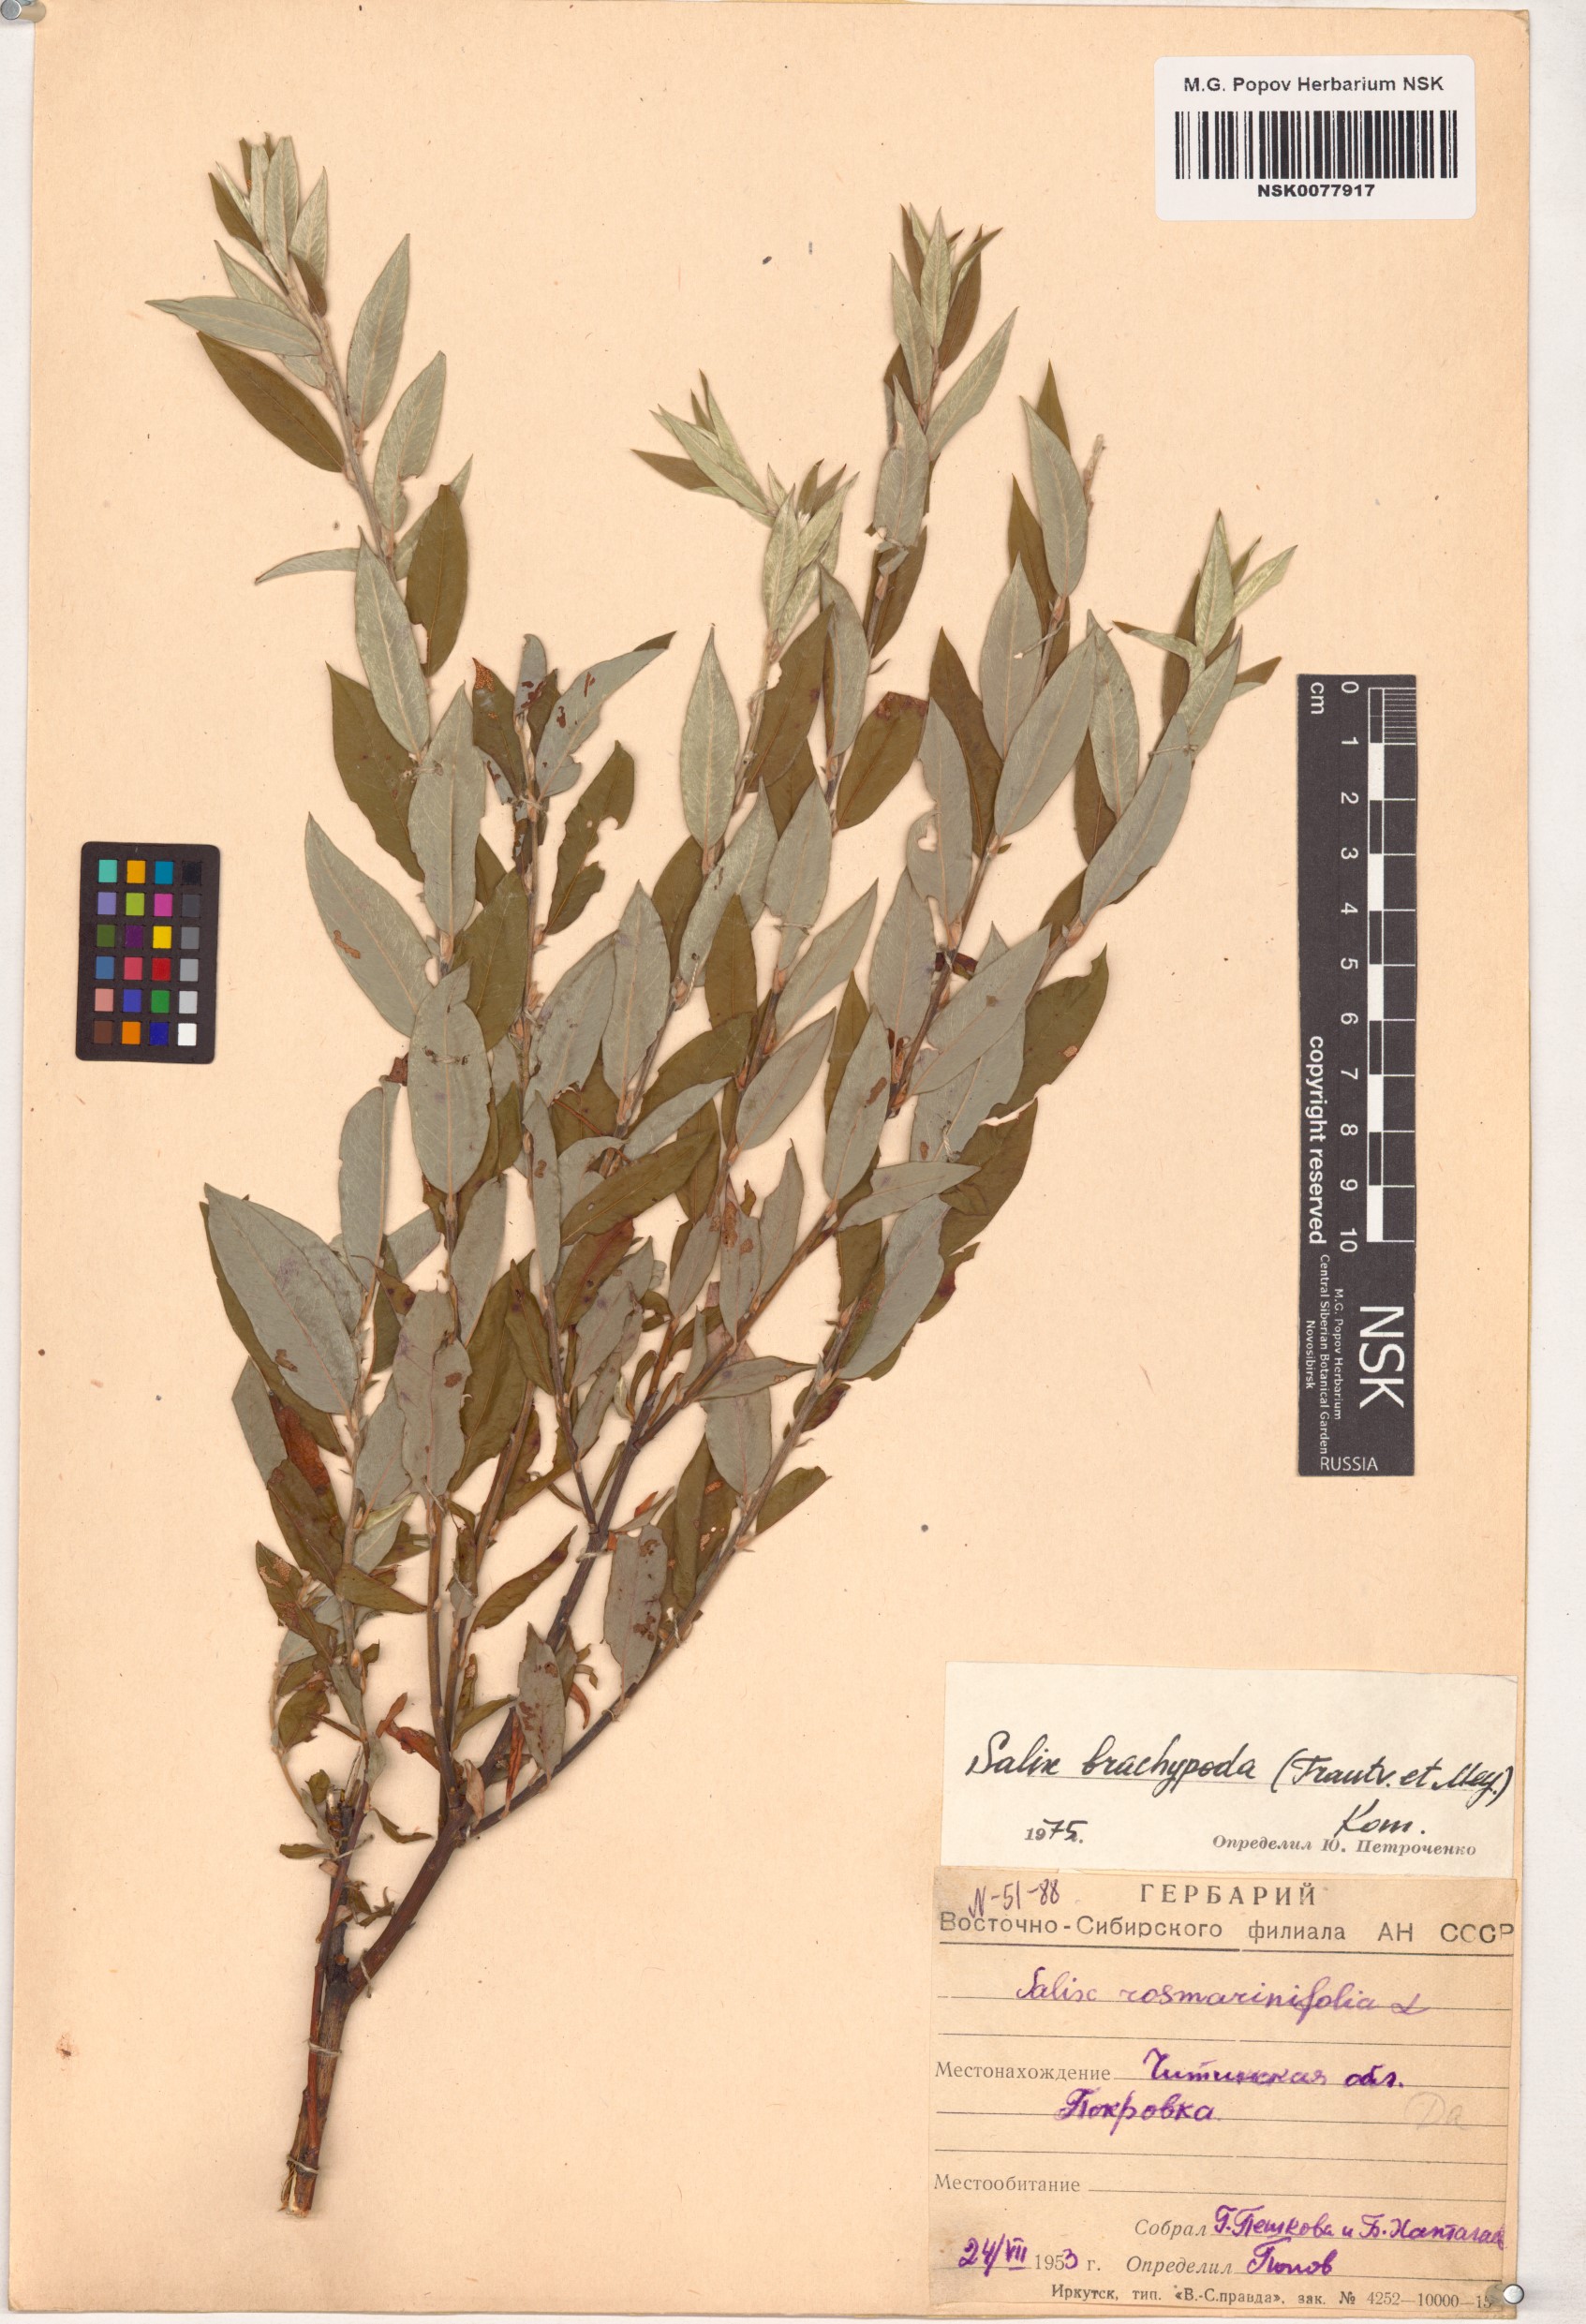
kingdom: Plantae
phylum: Tracheophyta
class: Magnoliopsida
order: Malpighiales
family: Salicaceae
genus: Salix
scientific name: Salix brachypoda
